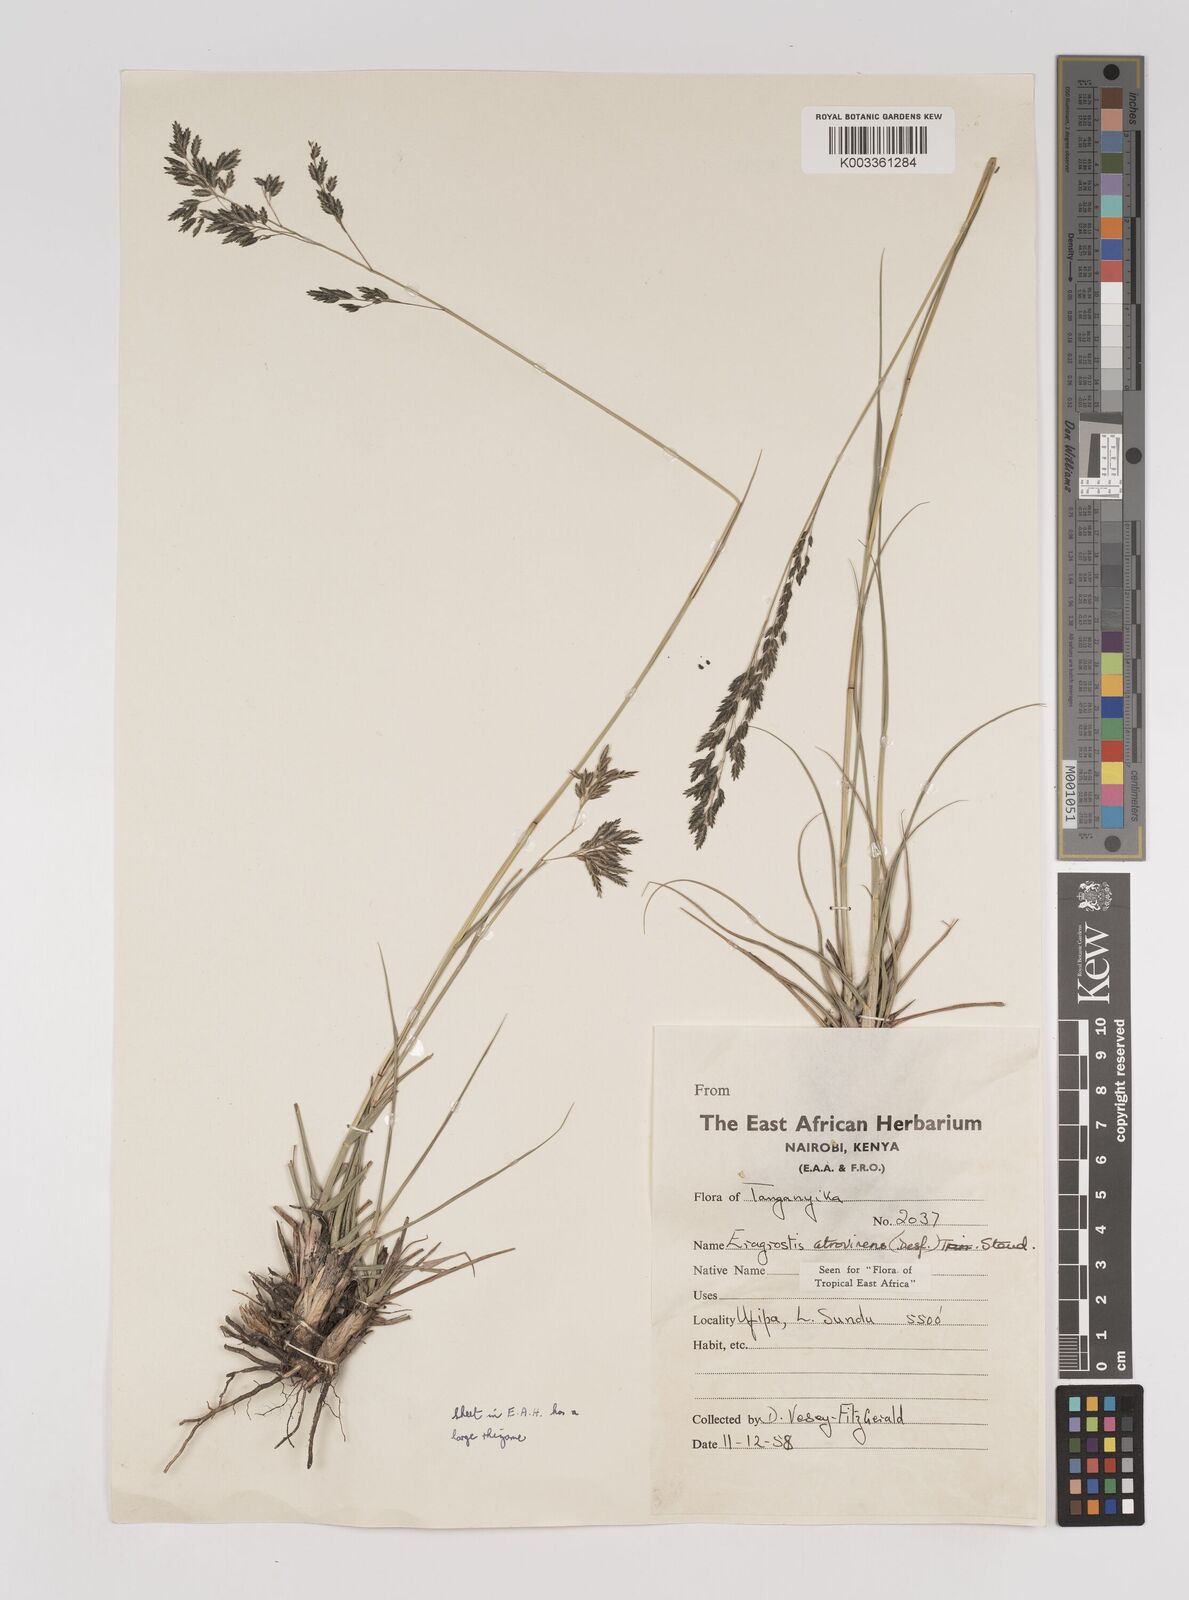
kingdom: Plantae
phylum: Tracheophyta
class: Liliopsida
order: Poales
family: Poaceae
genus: Eragrostis
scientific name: Eragrostis papposa
